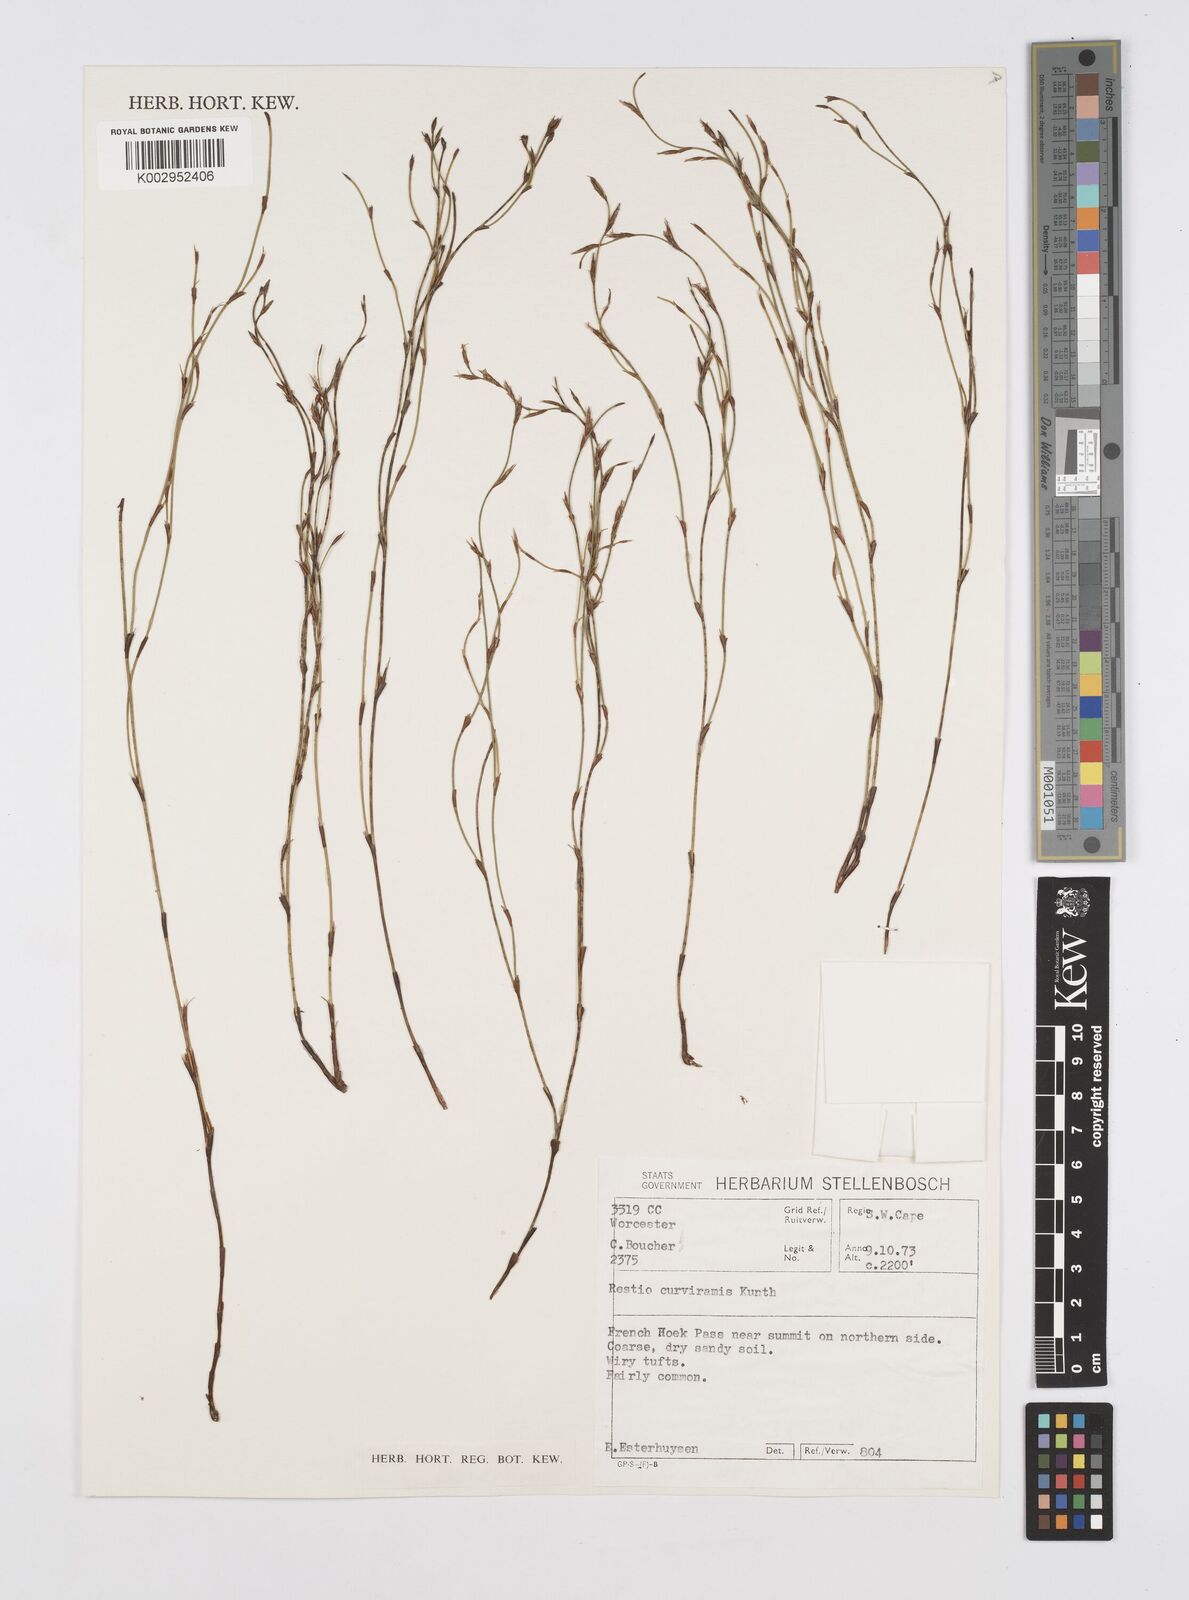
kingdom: Plantae
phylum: Tracheophyta
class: Liliopsida
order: Poales
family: Restionaceae
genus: Restio
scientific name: Restio curviramis
